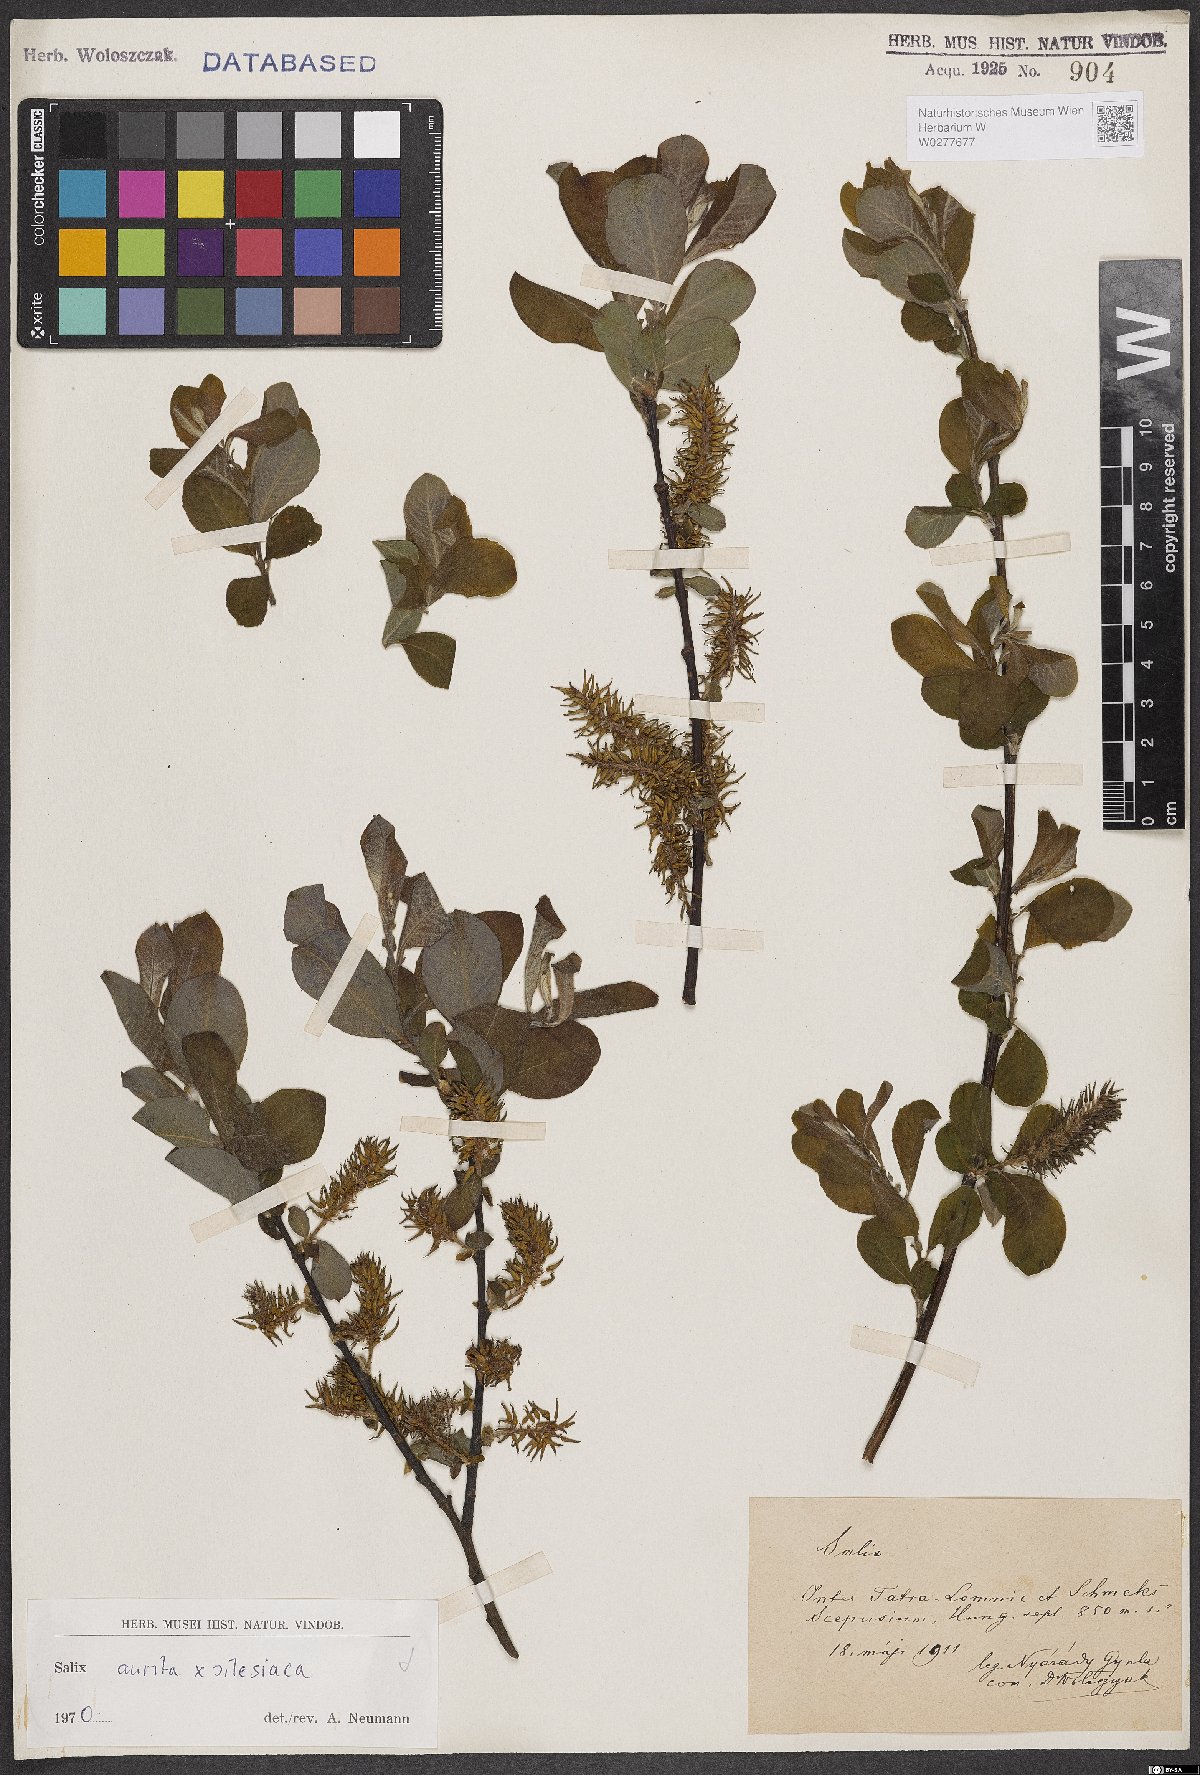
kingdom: Plantae
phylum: Tracheophyta
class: Magnoliopsida
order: Malpighiales
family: Salicaceae
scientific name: Salicaceae
